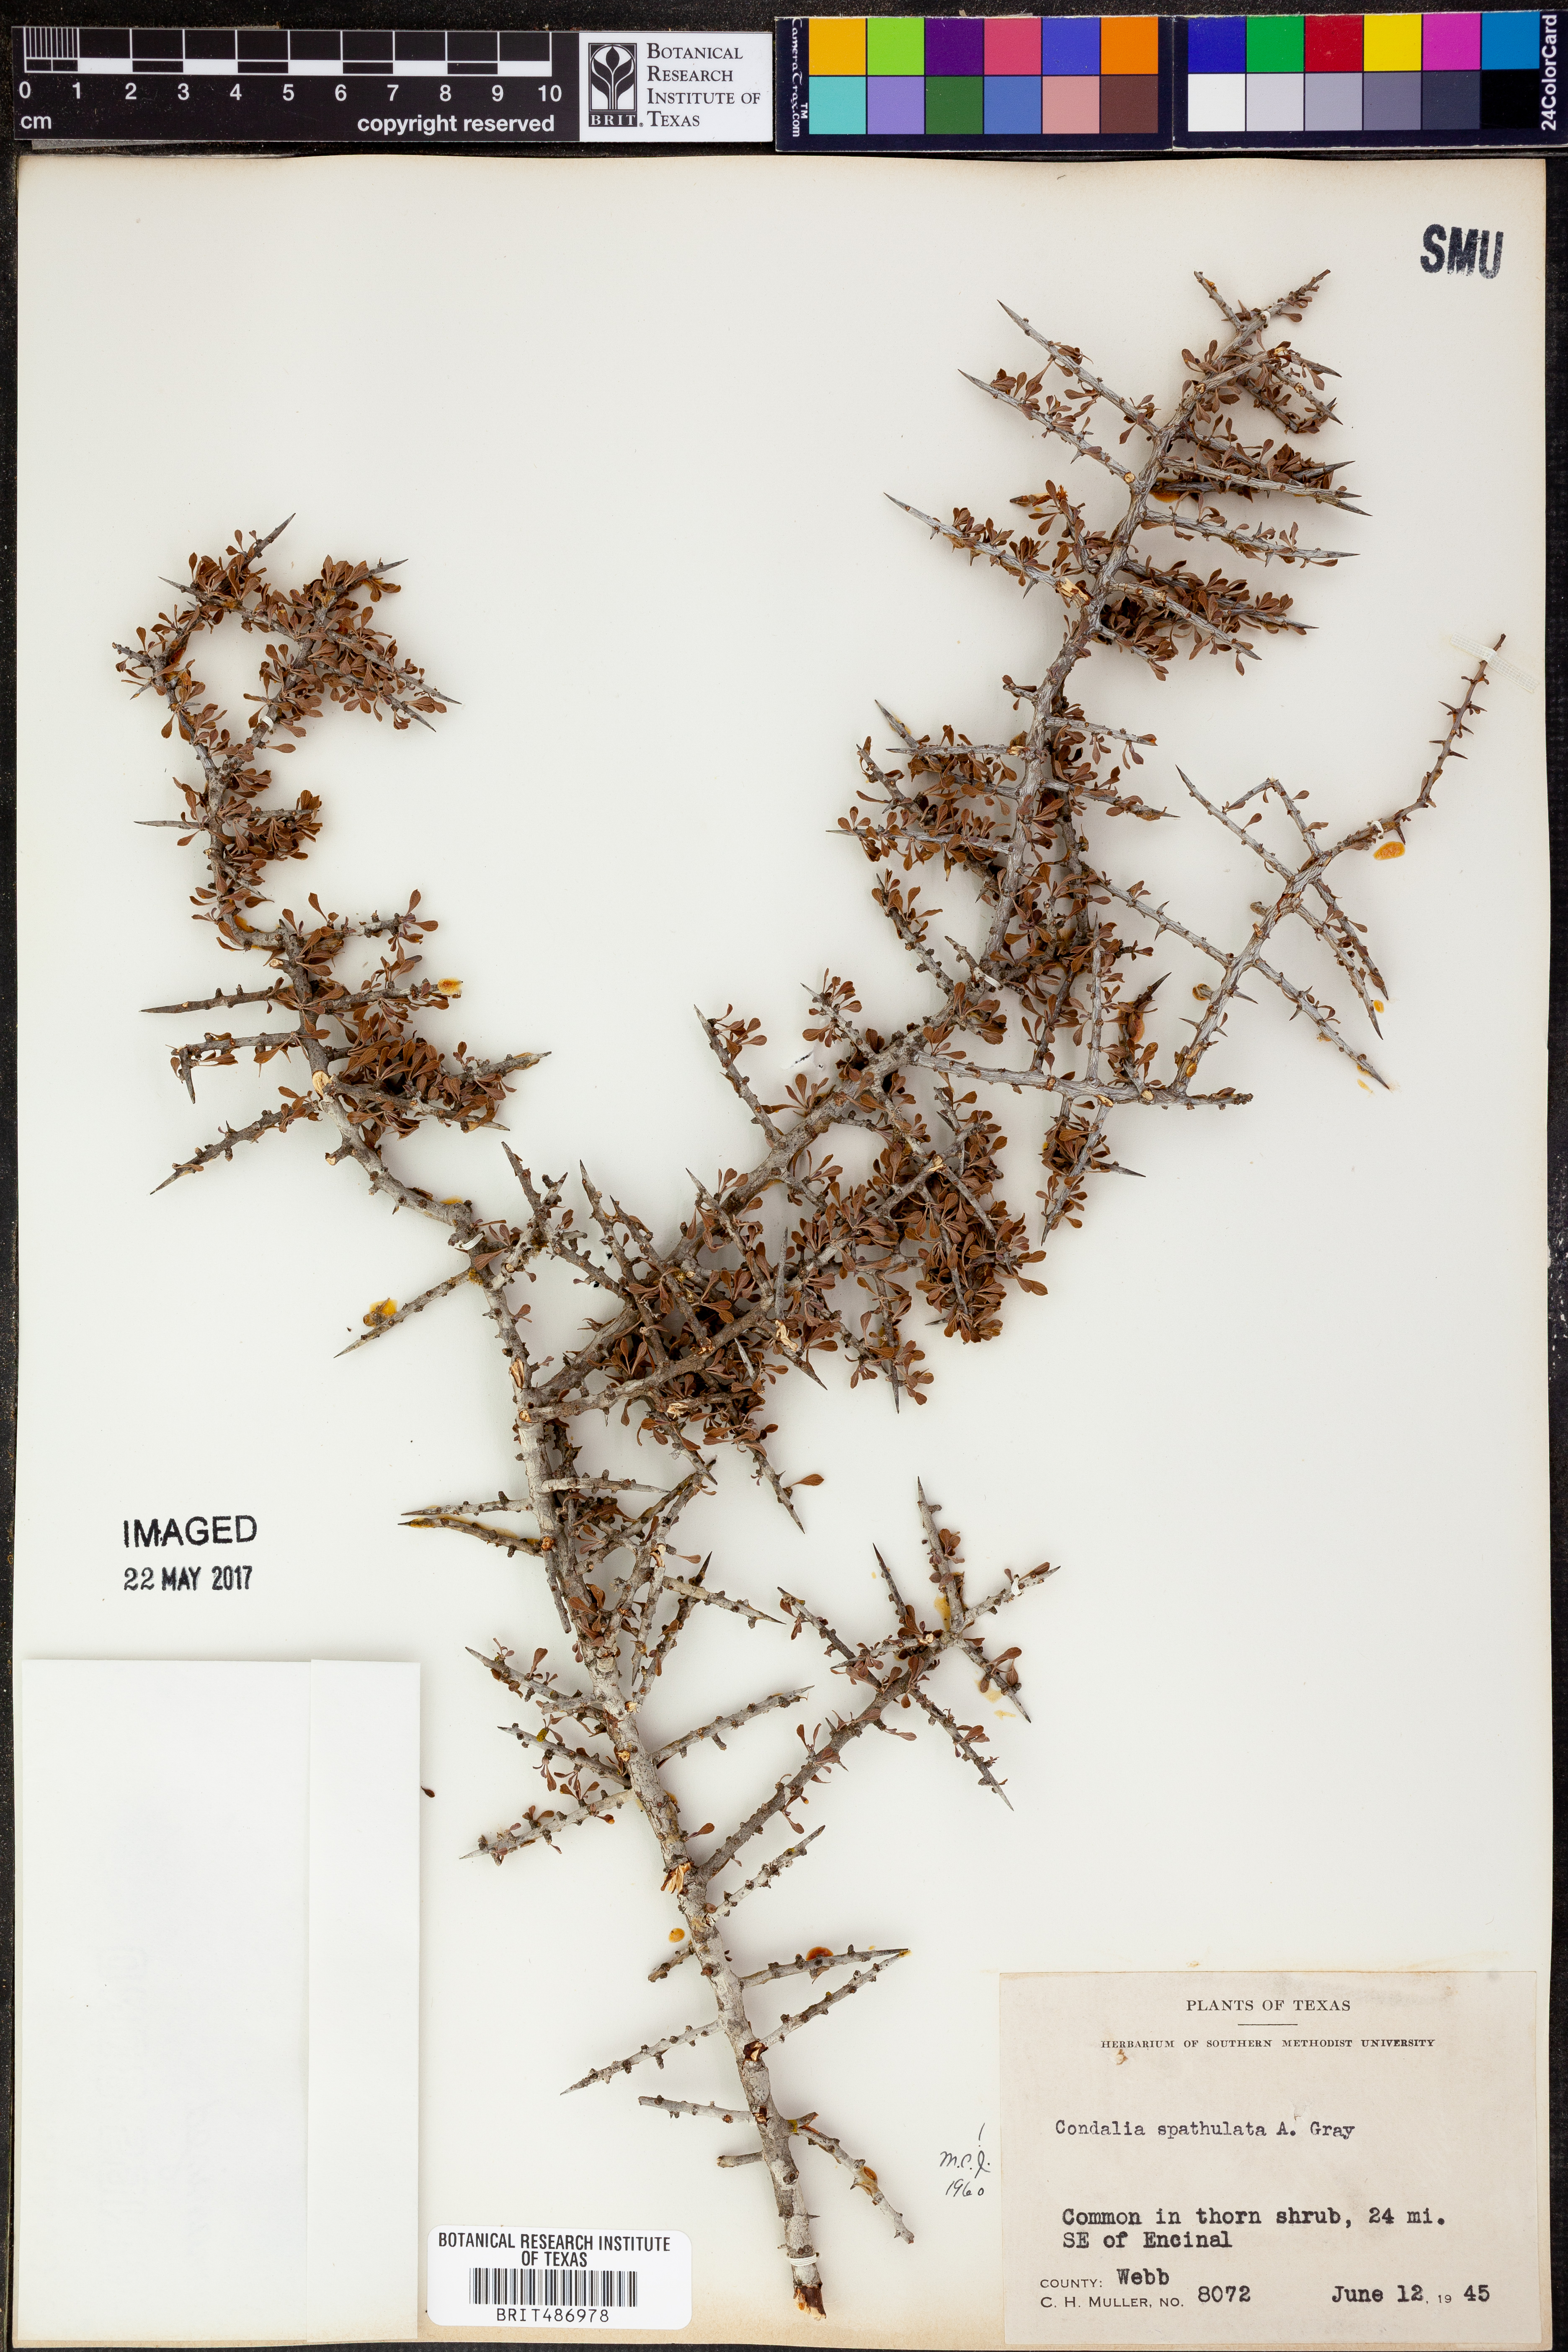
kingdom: Plantae
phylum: Tracheophyta
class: Magnoliopsida
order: Rosales
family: Rhamnaceae
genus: Condalia
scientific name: Condalia spathulata
